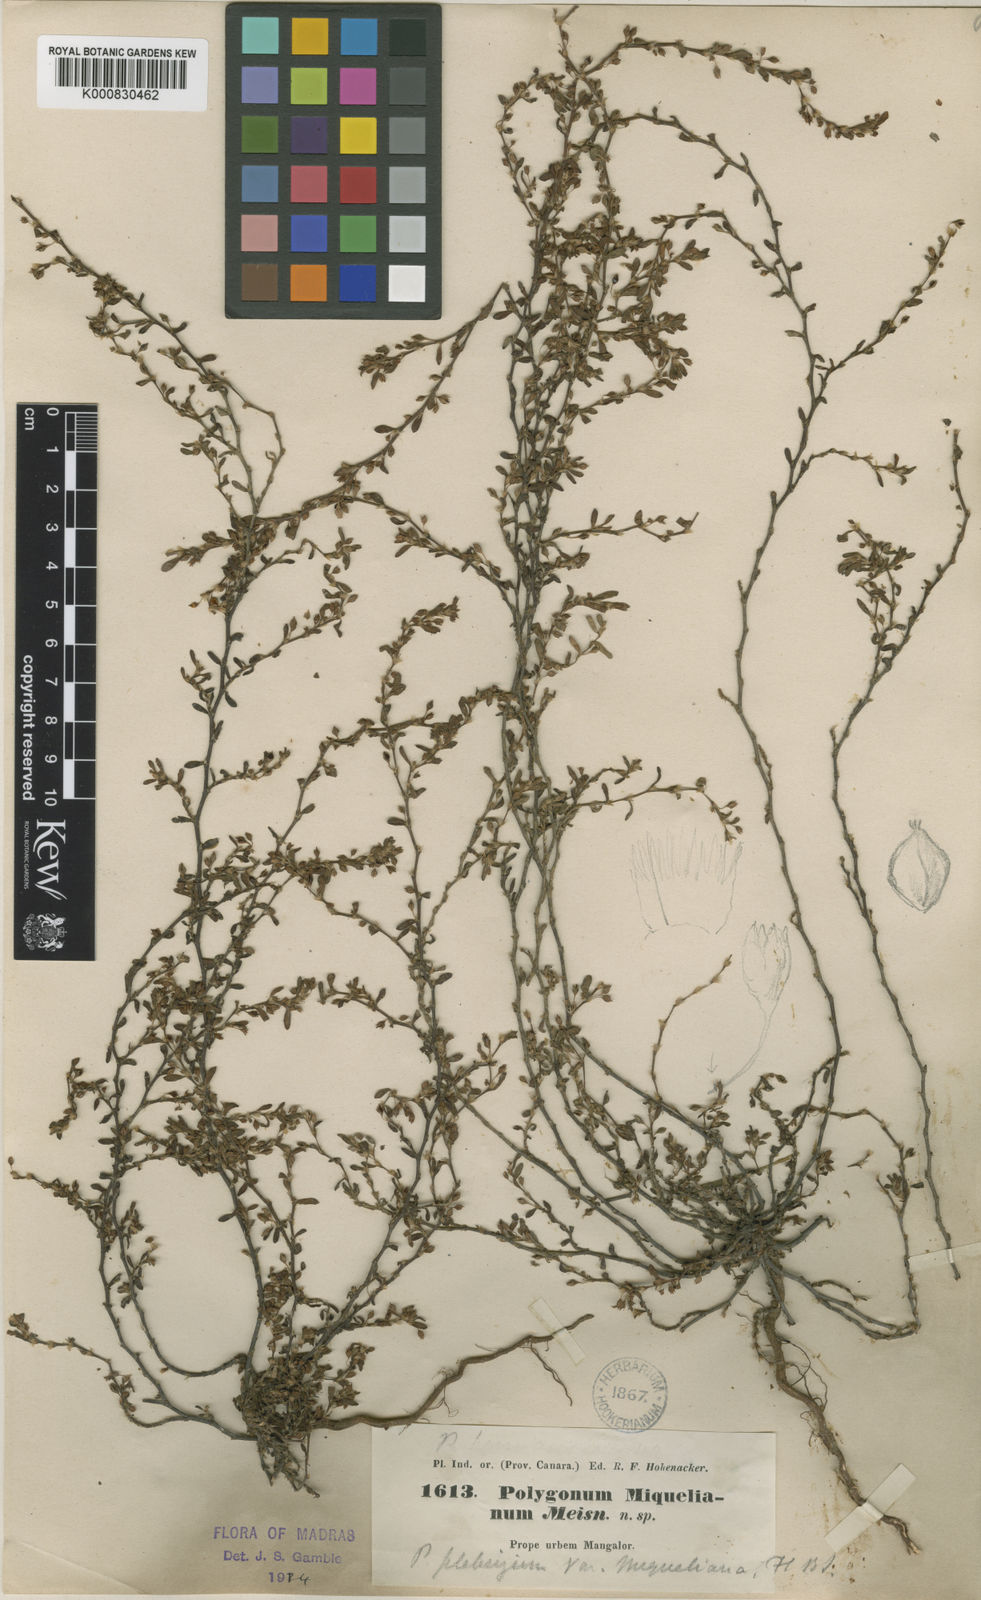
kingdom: Plantae
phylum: Tracheophyta
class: Magnoliopsida
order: Caryophyllales
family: Polygonaceae
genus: Polygonum
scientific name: Polygonum plebeium
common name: Common knotweed
